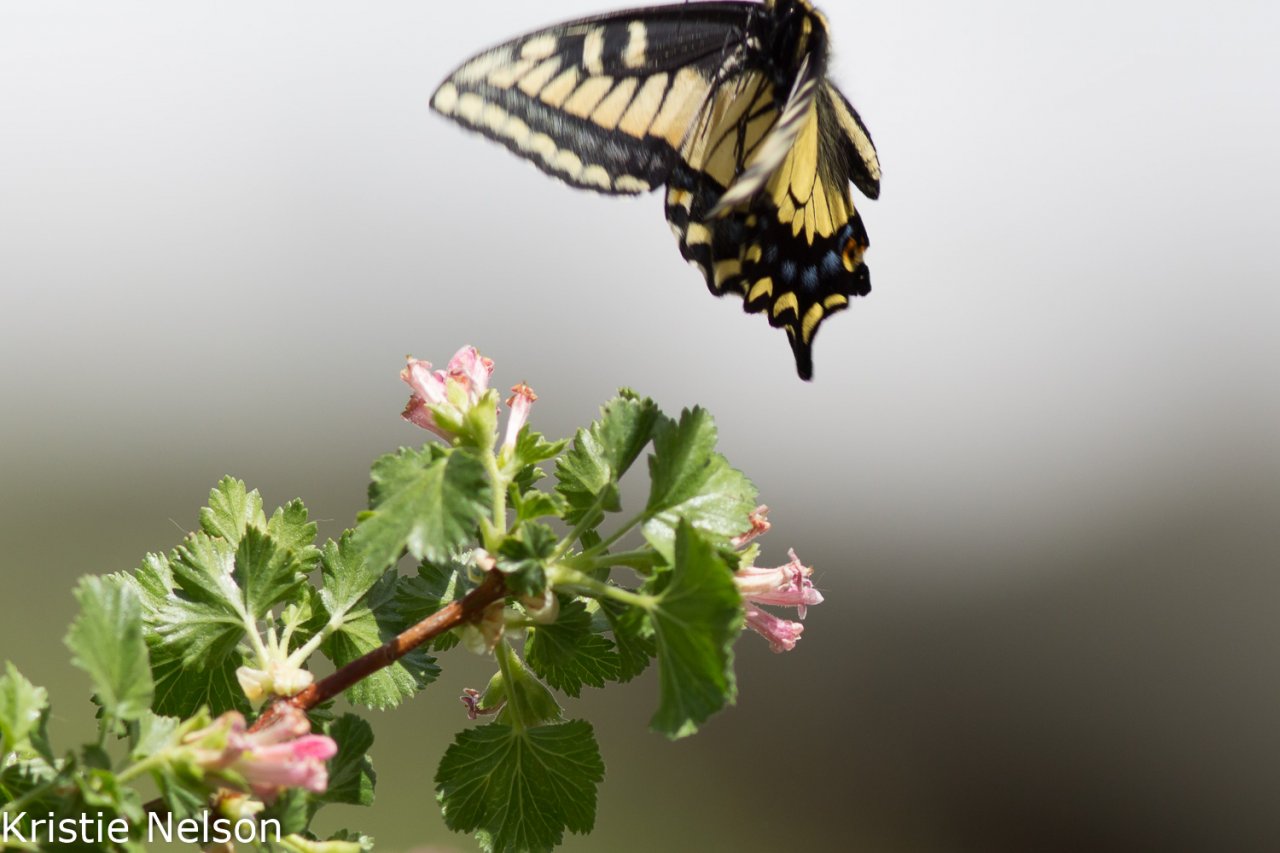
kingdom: Animalia
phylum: Arthropoda
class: Insecta
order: Lepidoptera
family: Papilionidae
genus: Papilio
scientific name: Papilio zelicaon
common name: Anise Swallowtail
